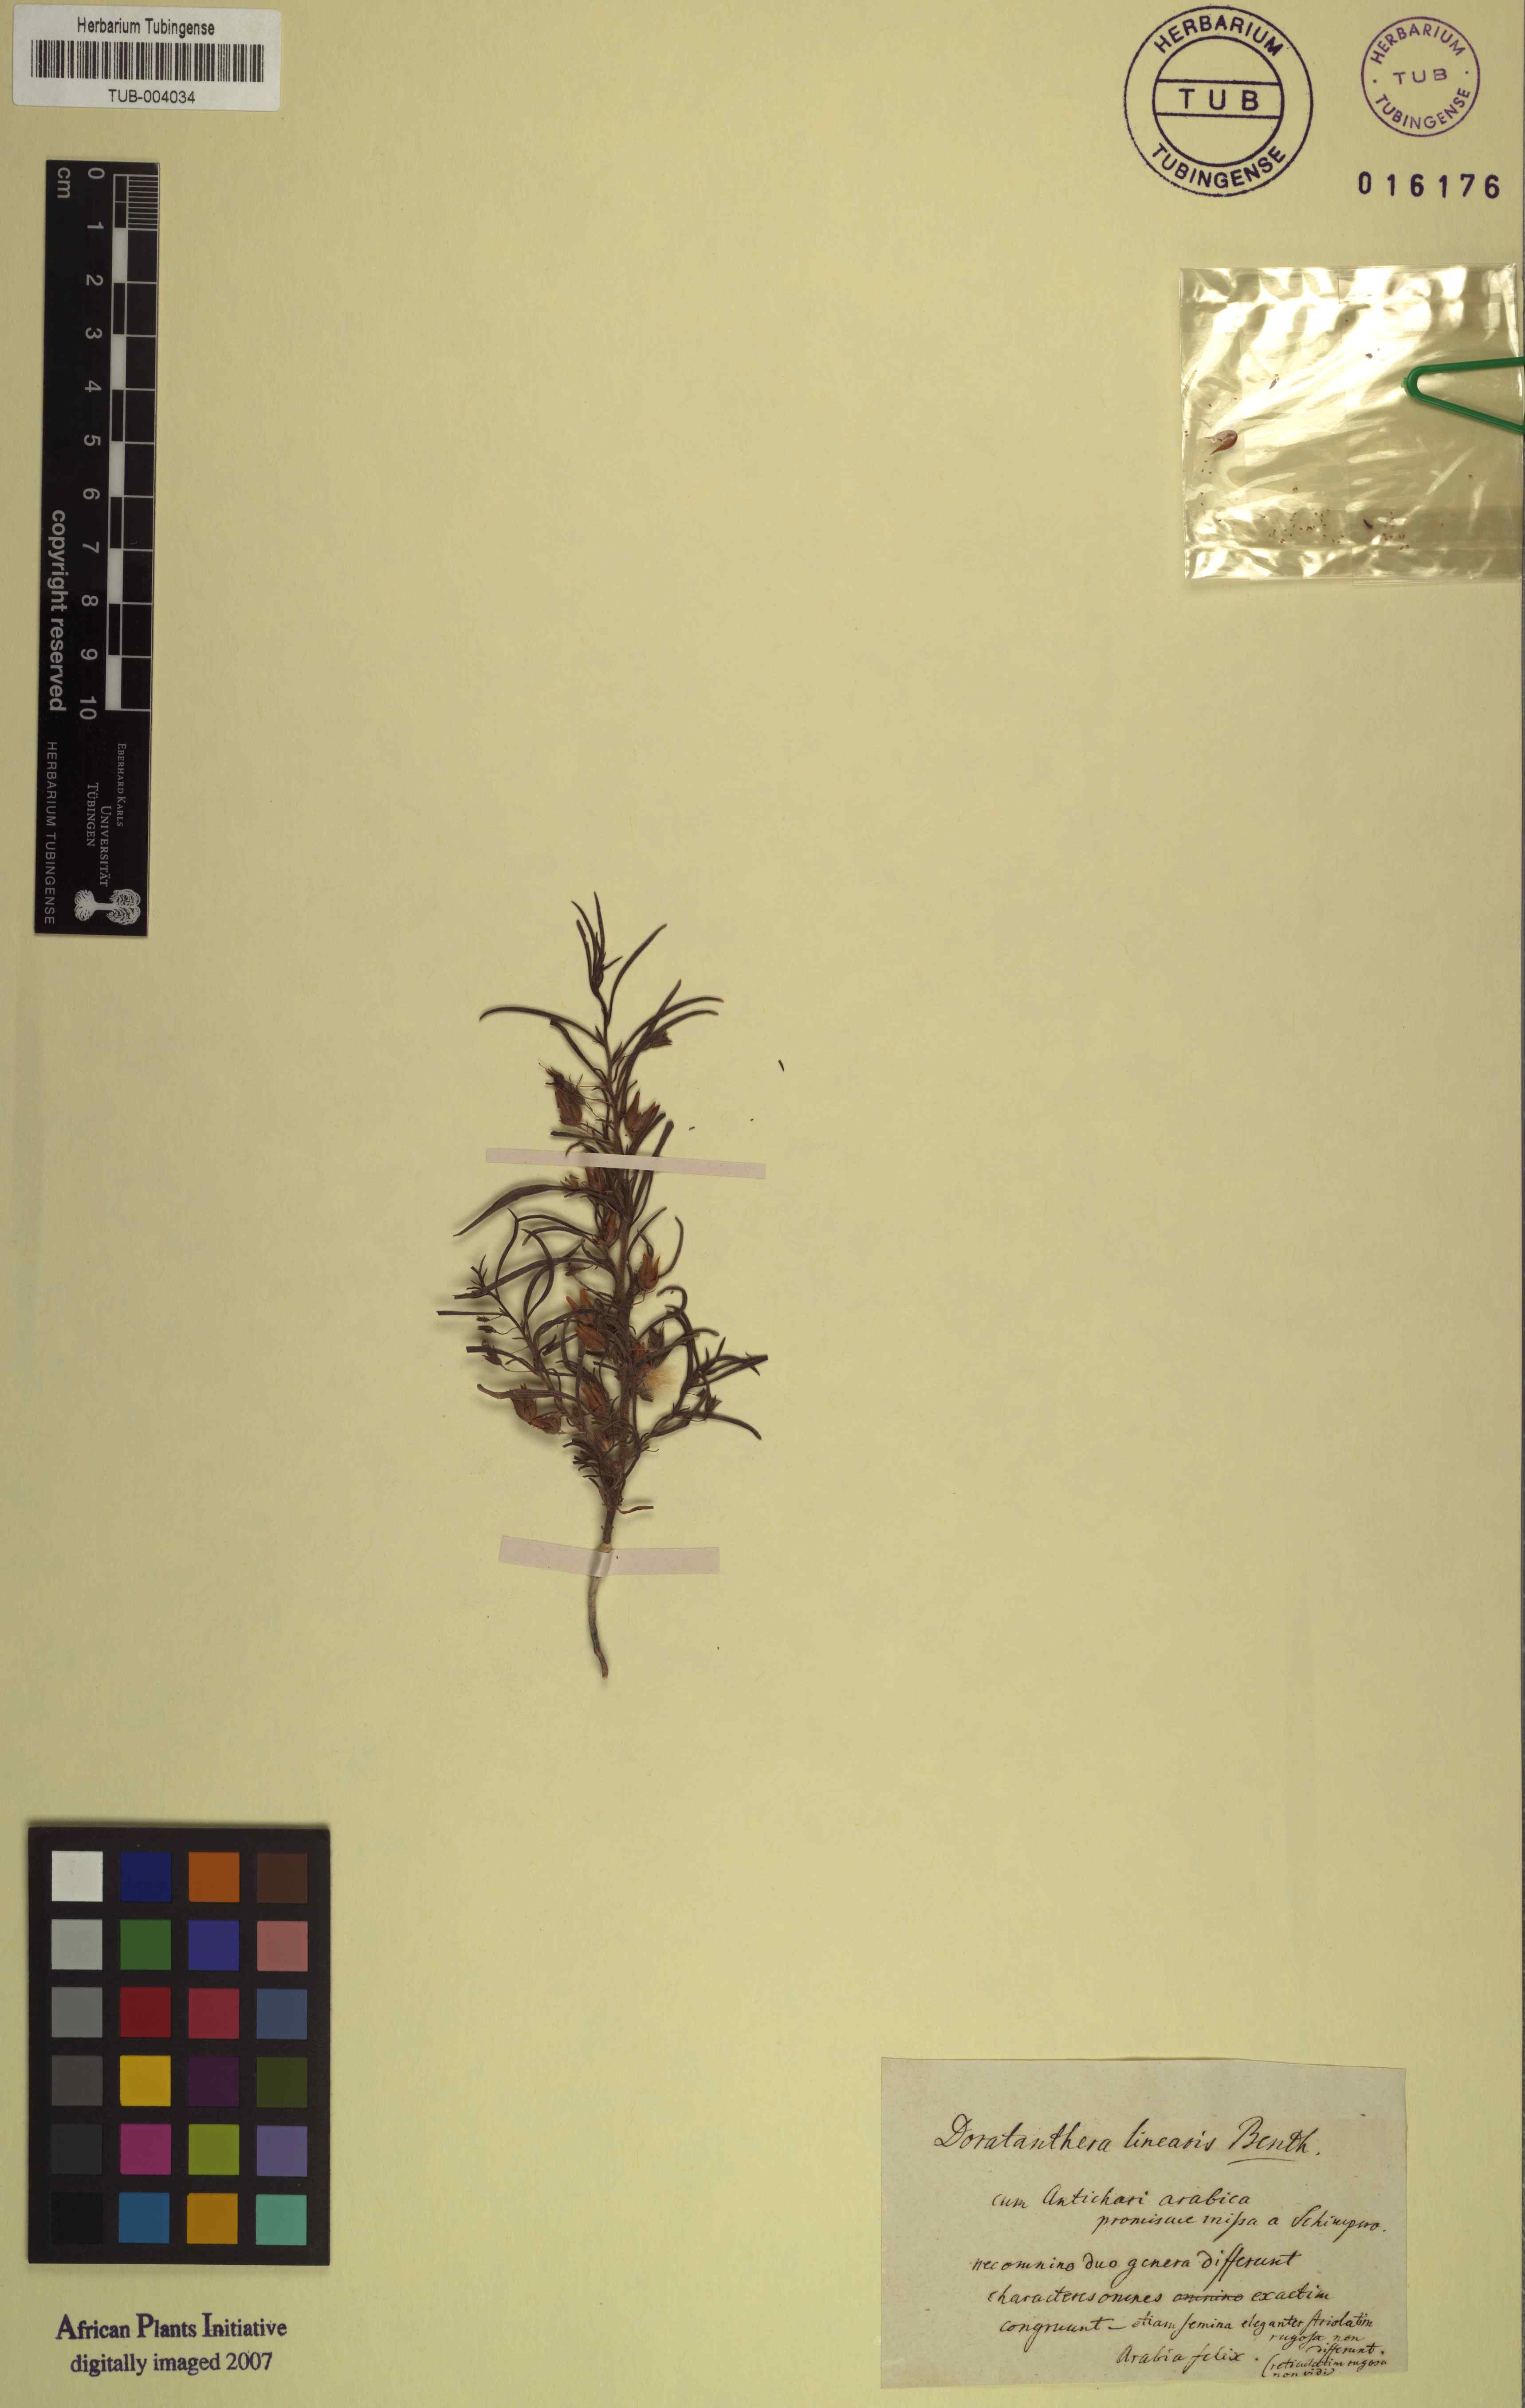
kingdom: Plantae
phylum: Tracheophyta
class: Magnoliopsida
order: Lamiales
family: Scrophulariaceae
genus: Anticharis
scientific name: Anticharis senegalensis
